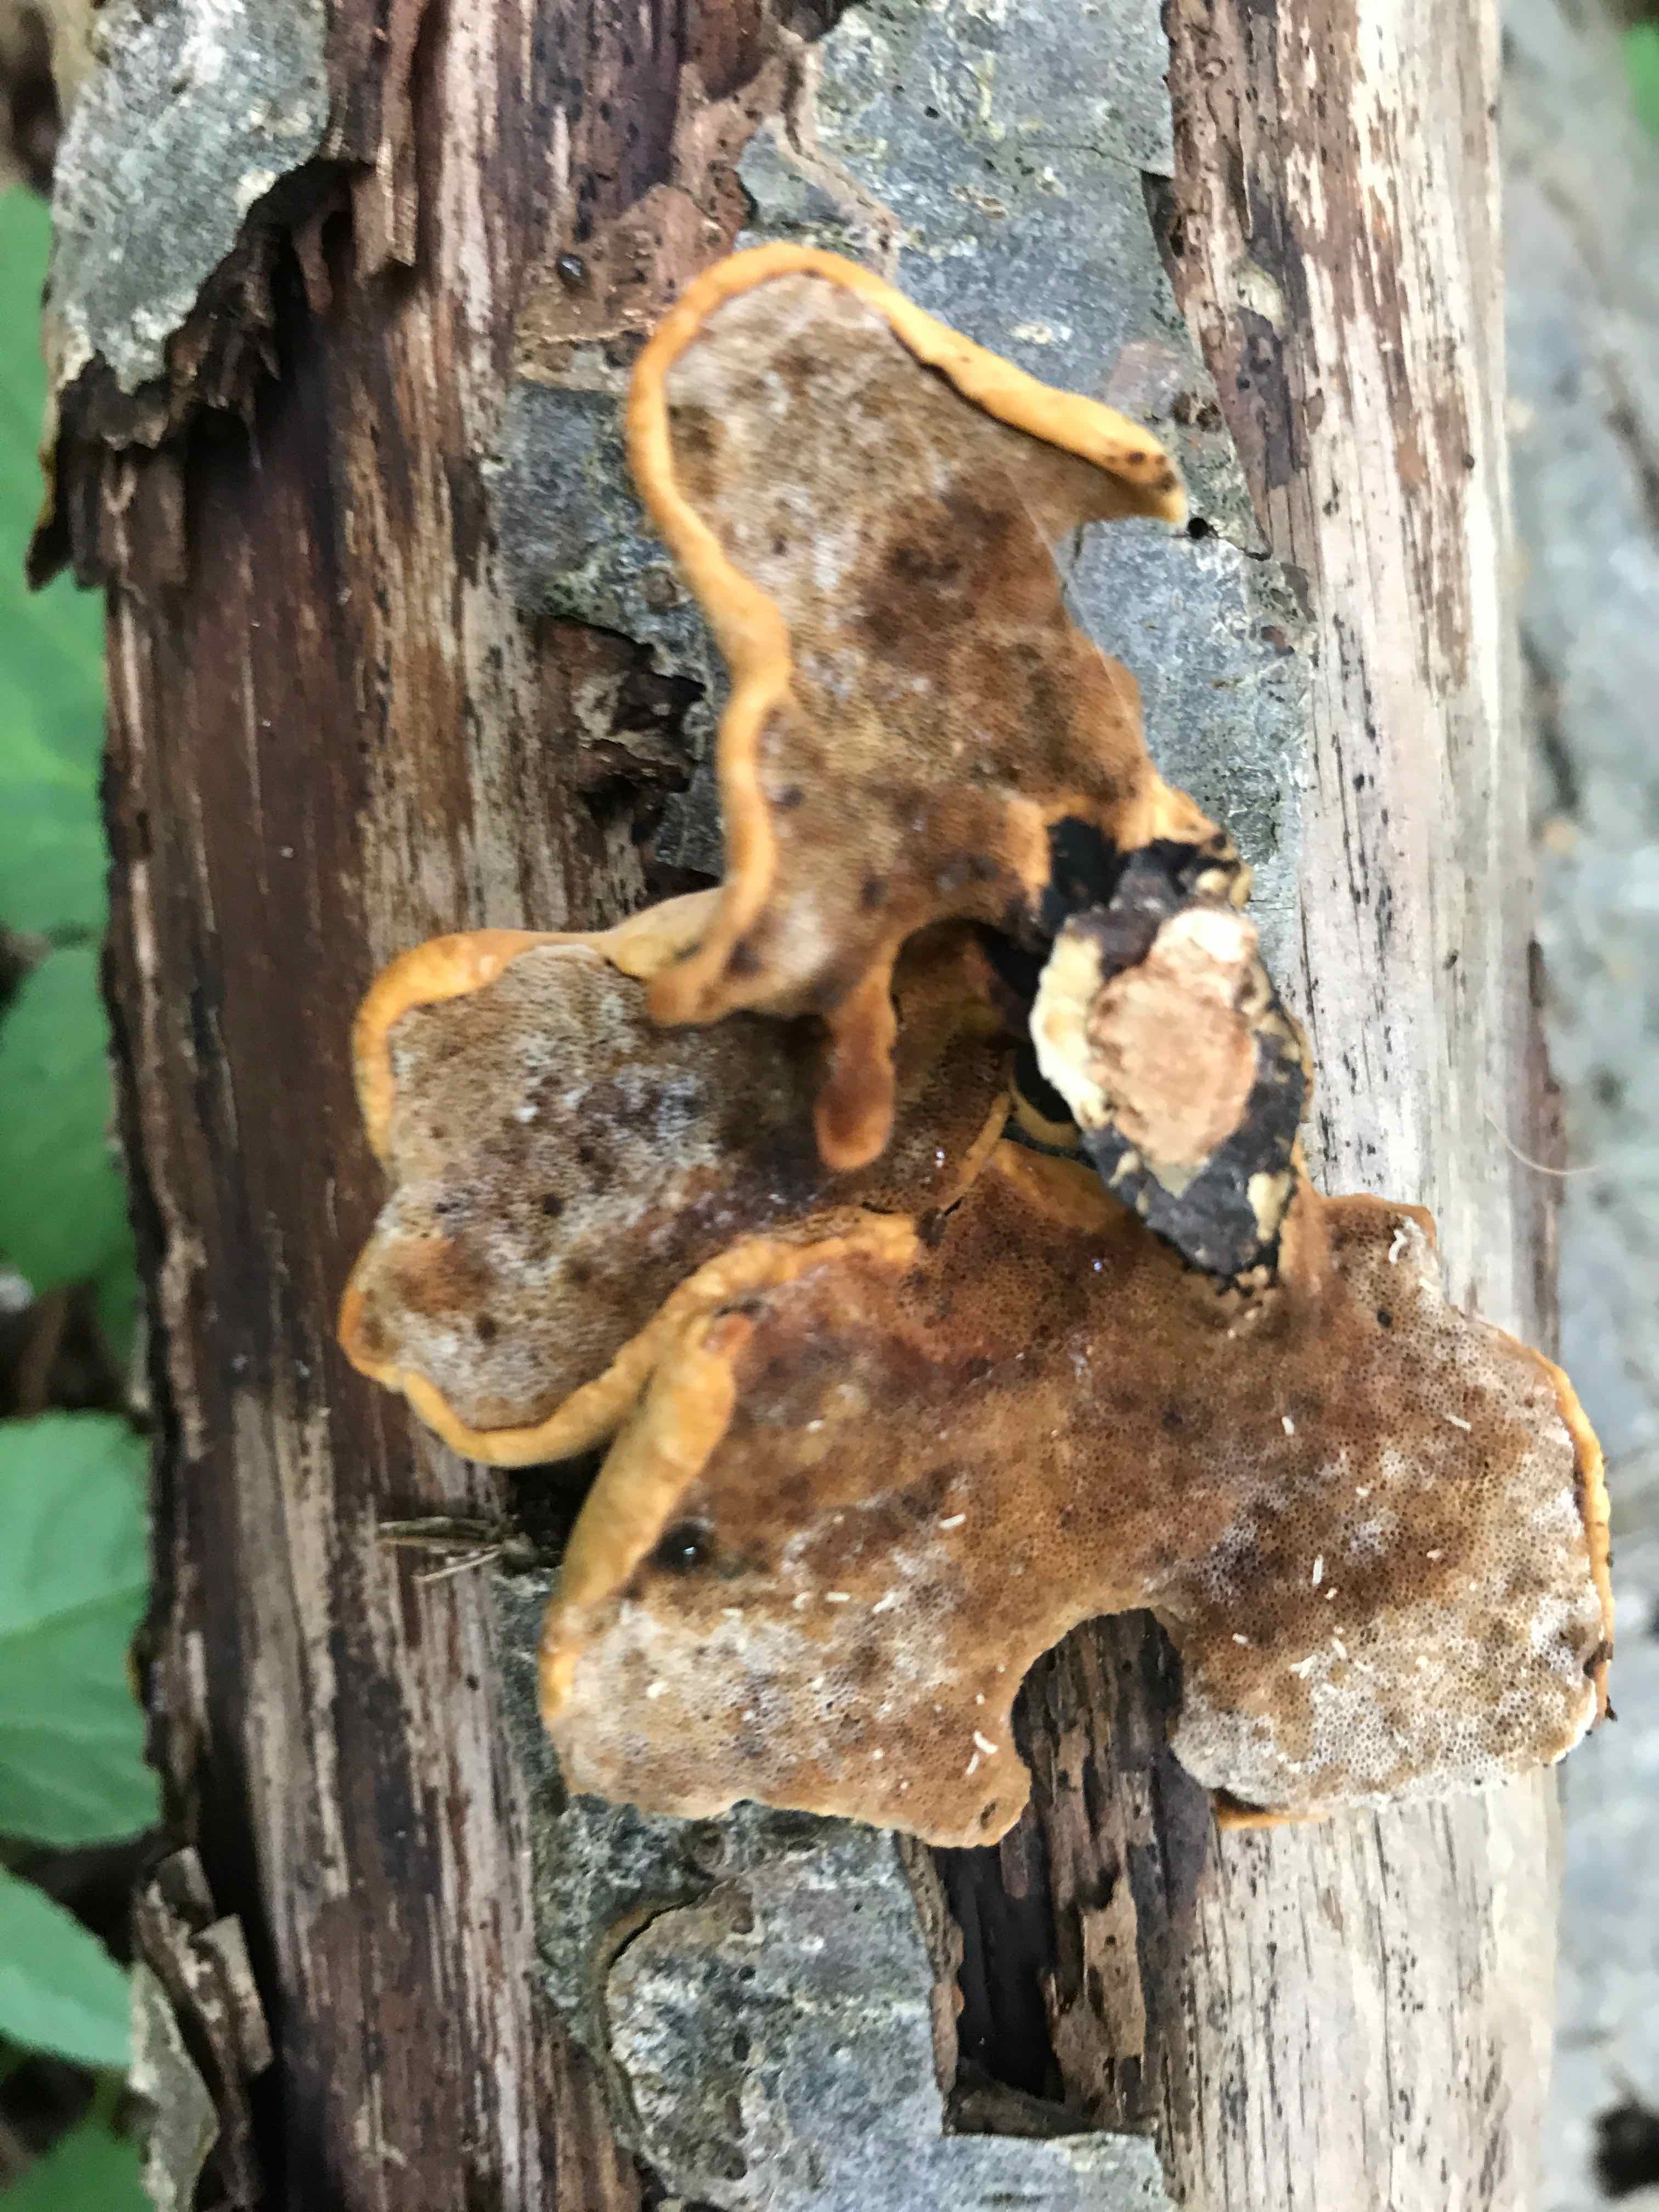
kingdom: Fungi
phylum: Basidiomycota
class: Agaricomycetes
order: Polyporales
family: Polyporaceae
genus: Cerioporus
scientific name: Cerioporus varius
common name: foranderlig stilkporesvamp
